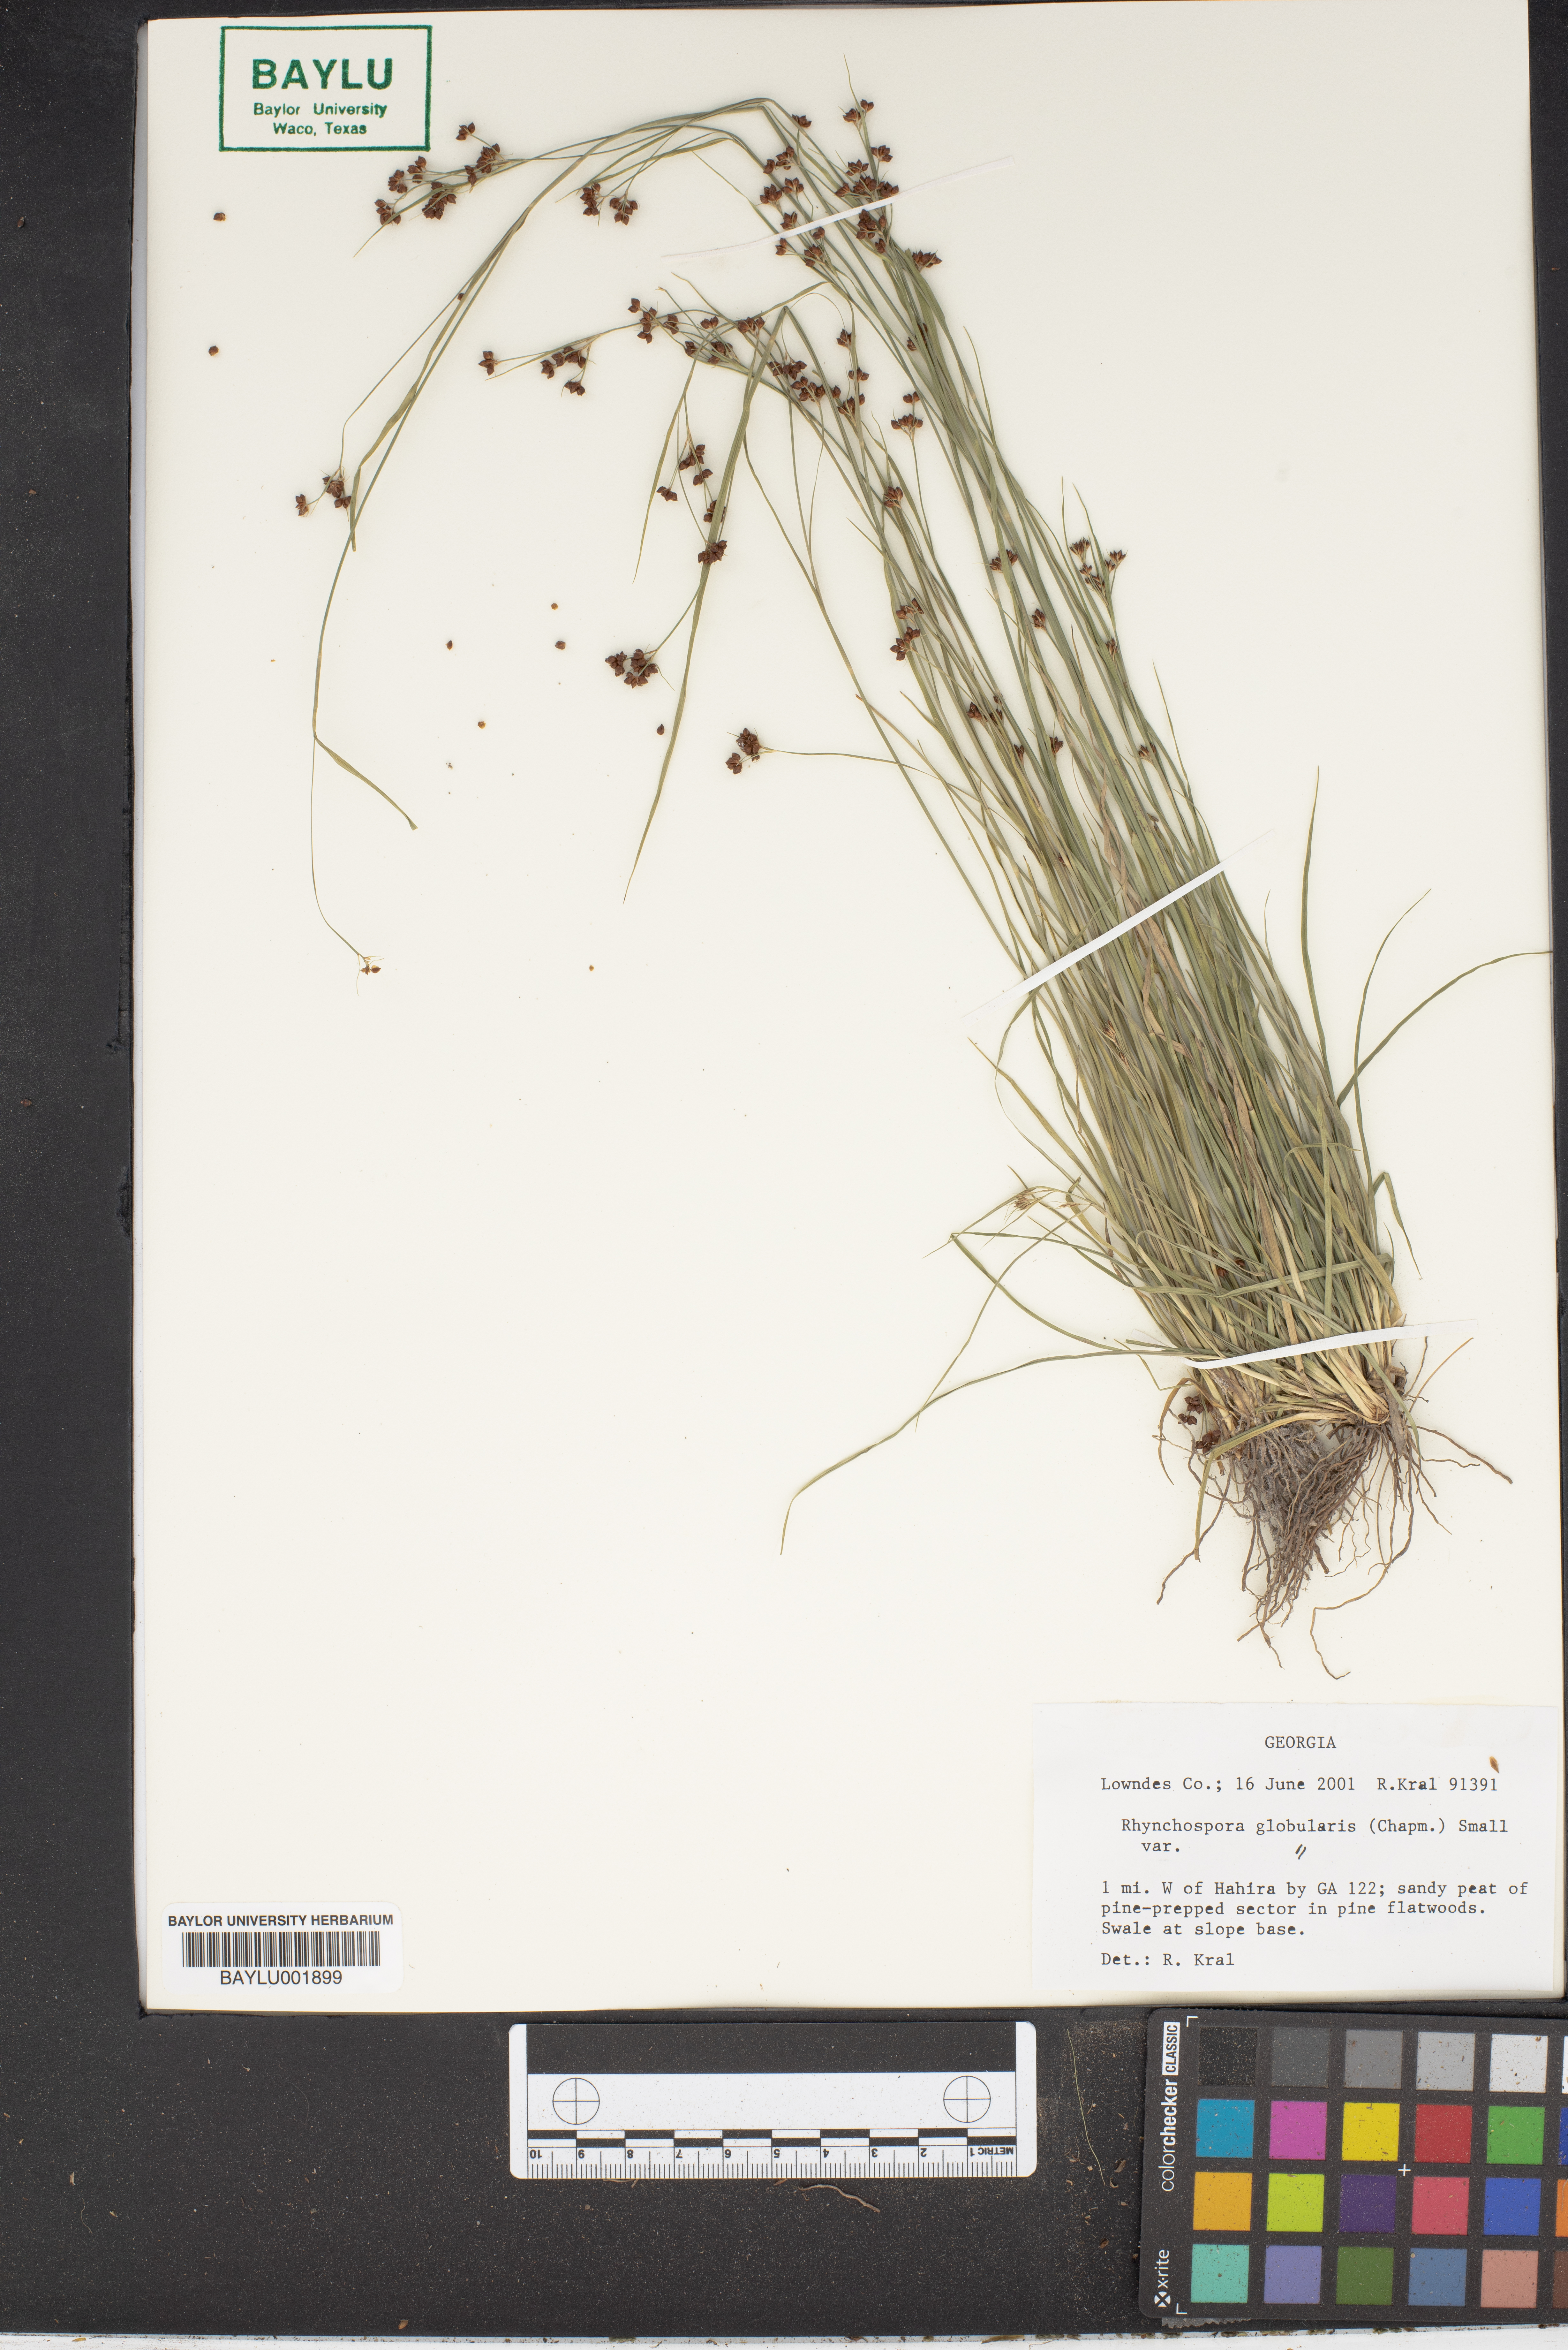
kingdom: Plantae
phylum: Tracheophyta
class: Liliopsida
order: Poales
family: Cyperaceae
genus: Rhynchospora
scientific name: Rhynchospora globularis
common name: Globe beaksedge
